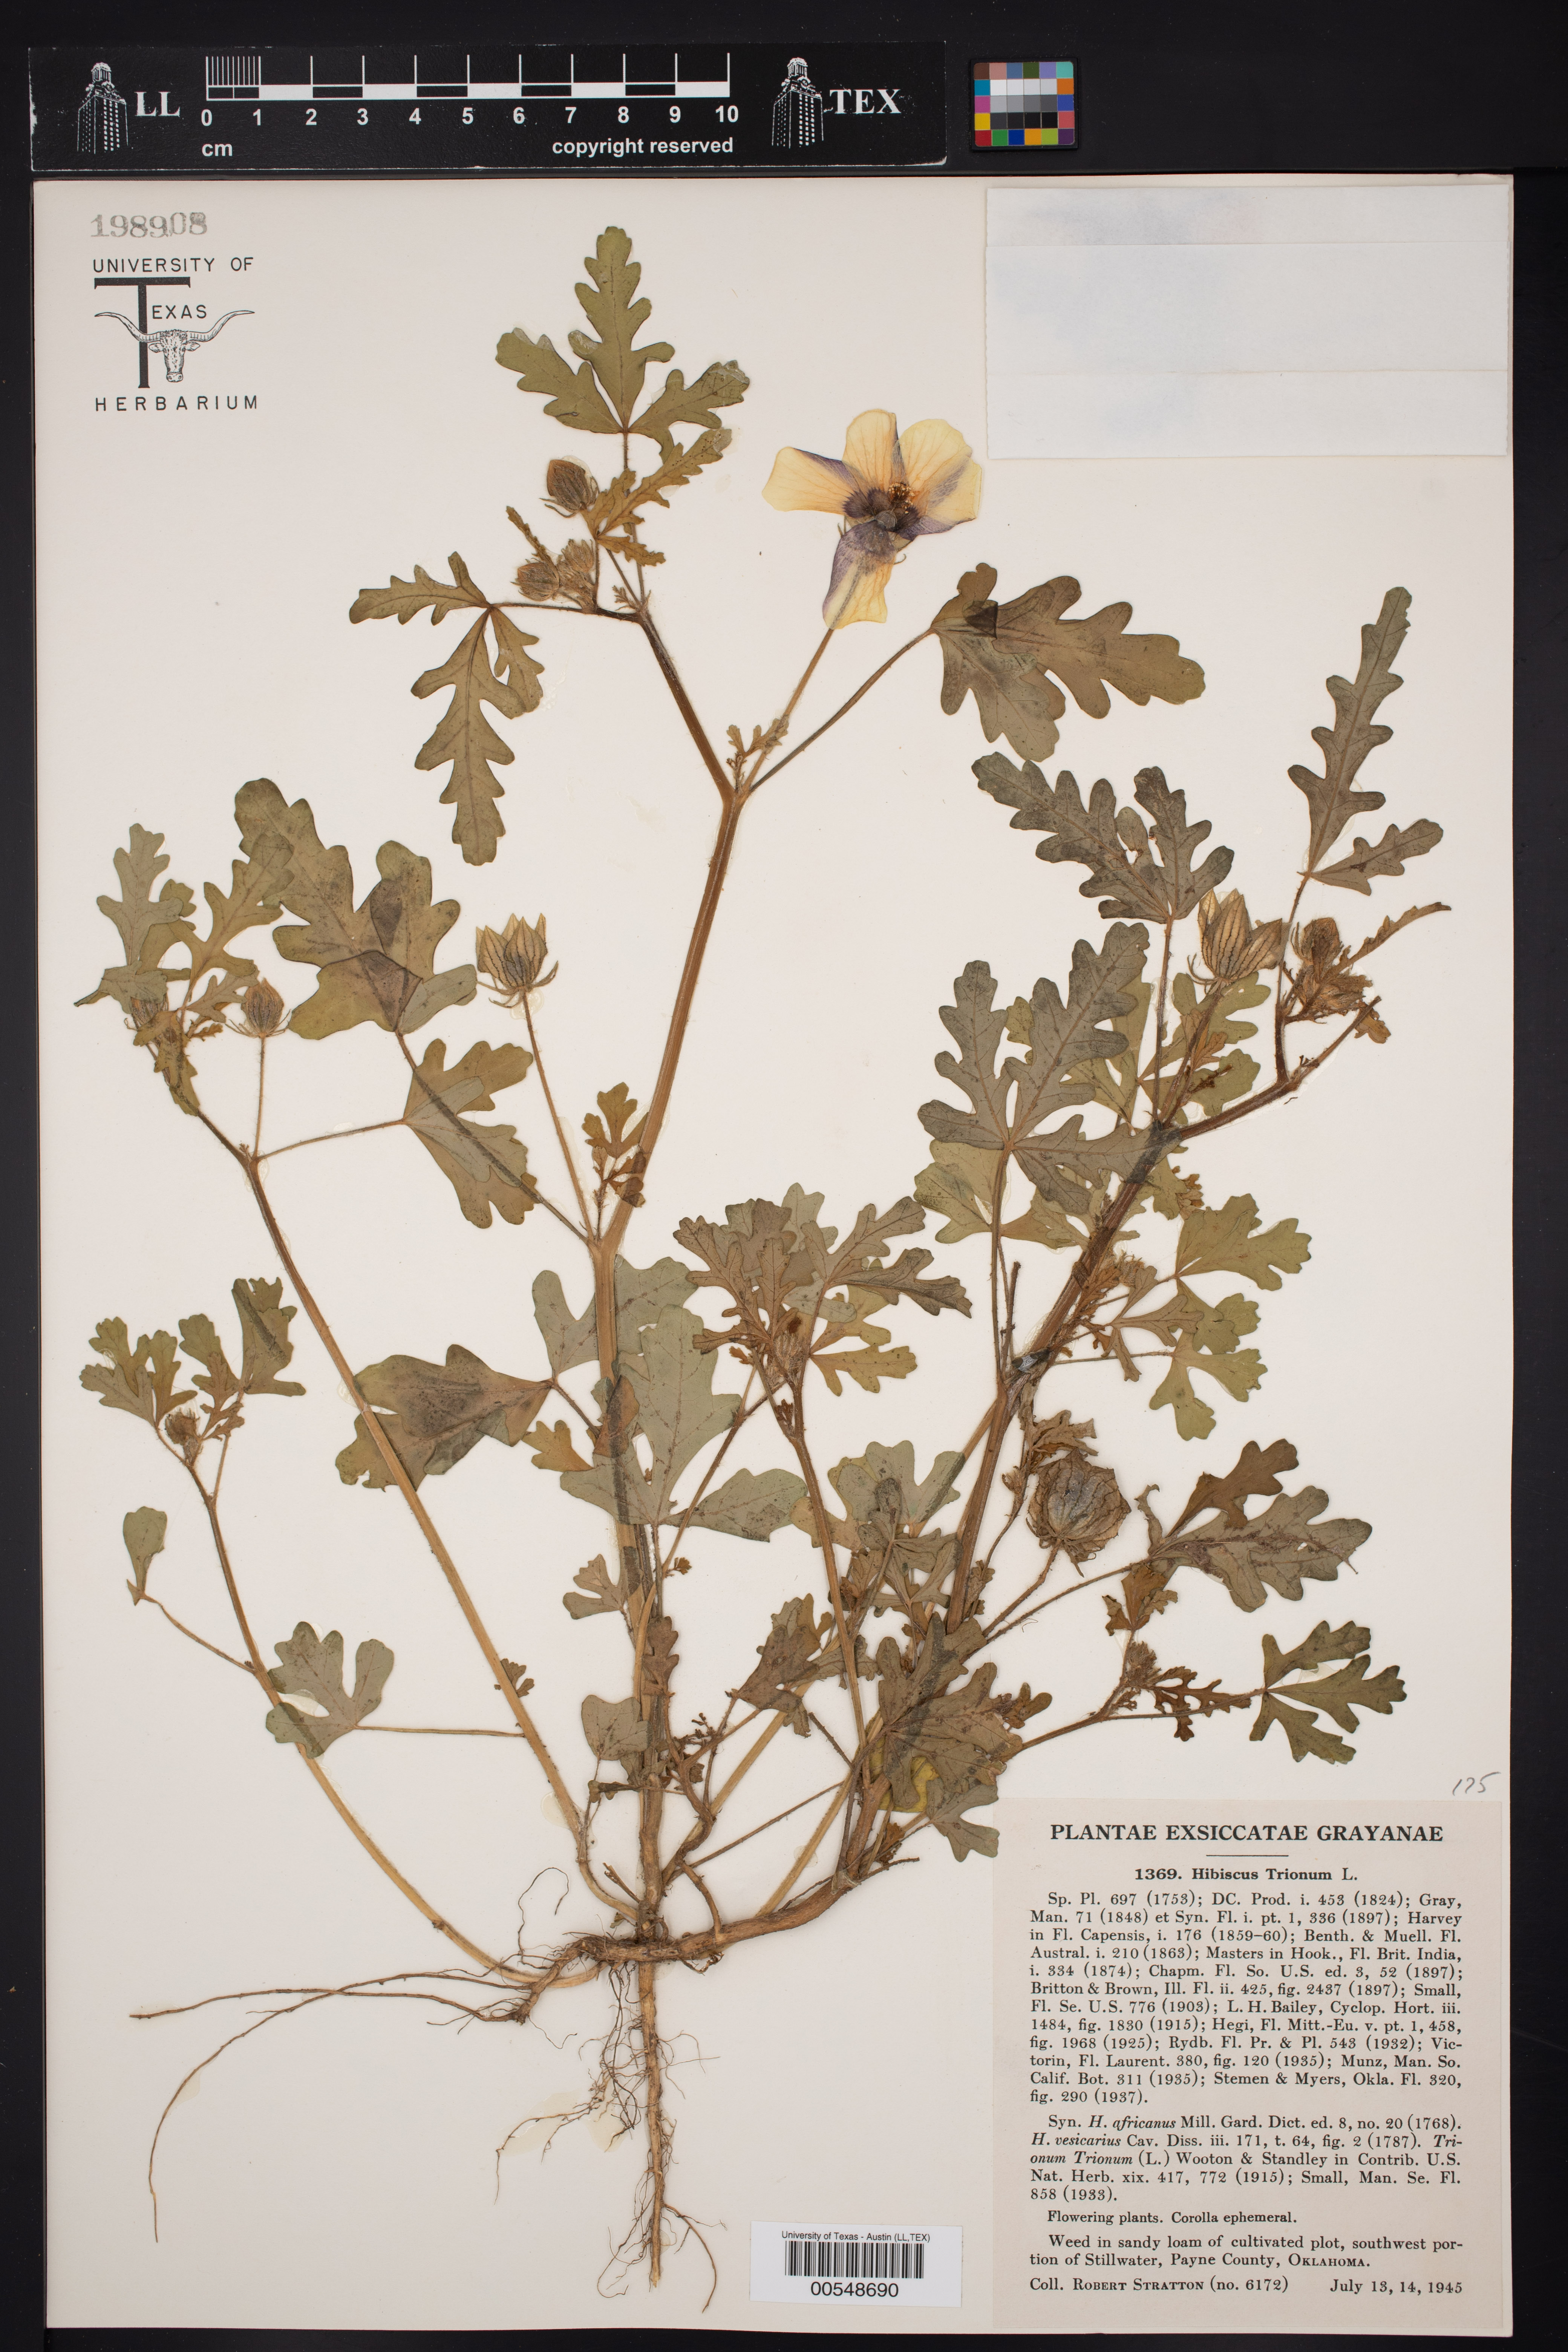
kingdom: Plantae
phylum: Tracheophyta
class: Magnoliopsida
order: Malvales
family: Malvaceae
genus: Hibiscus
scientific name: Hibiscus trionum
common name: Bladder ketmia
